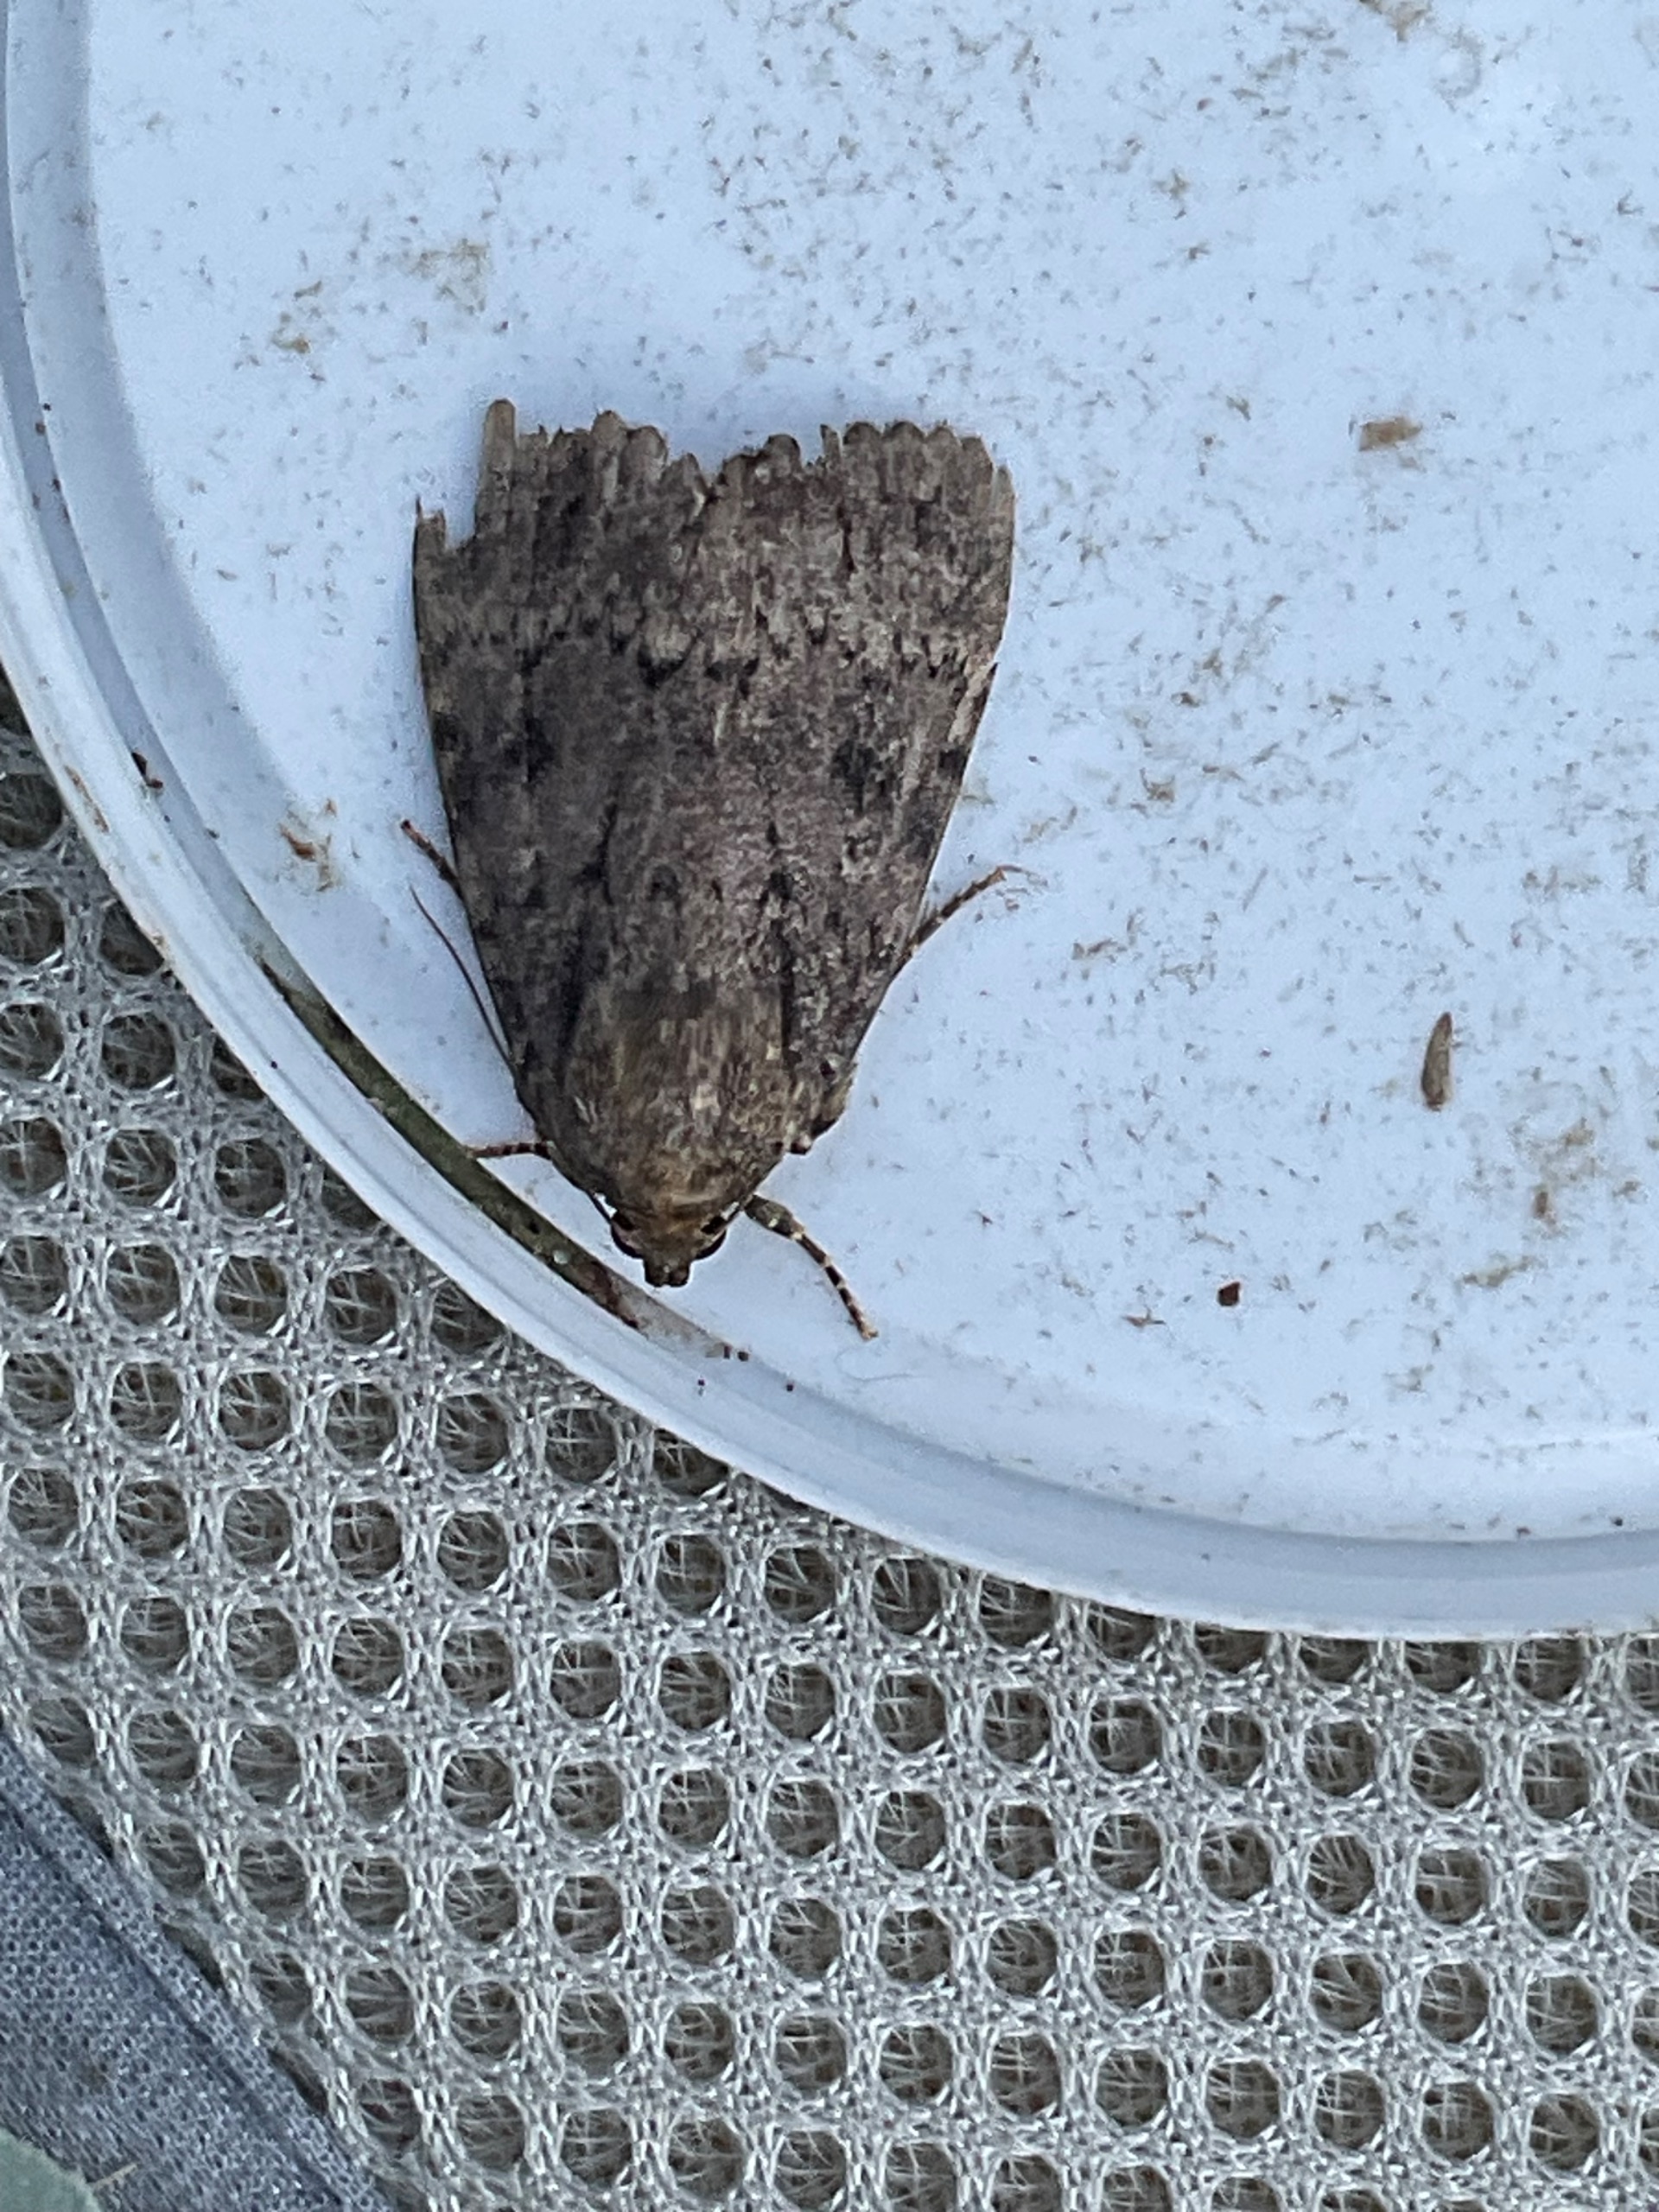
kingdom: Animalia
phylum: Arthropoda
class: Insecta
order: Lepidoptera
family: Noctuidae
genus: Amphipyra
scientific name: Amphipyra pyramidea
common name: Pyramideugle
